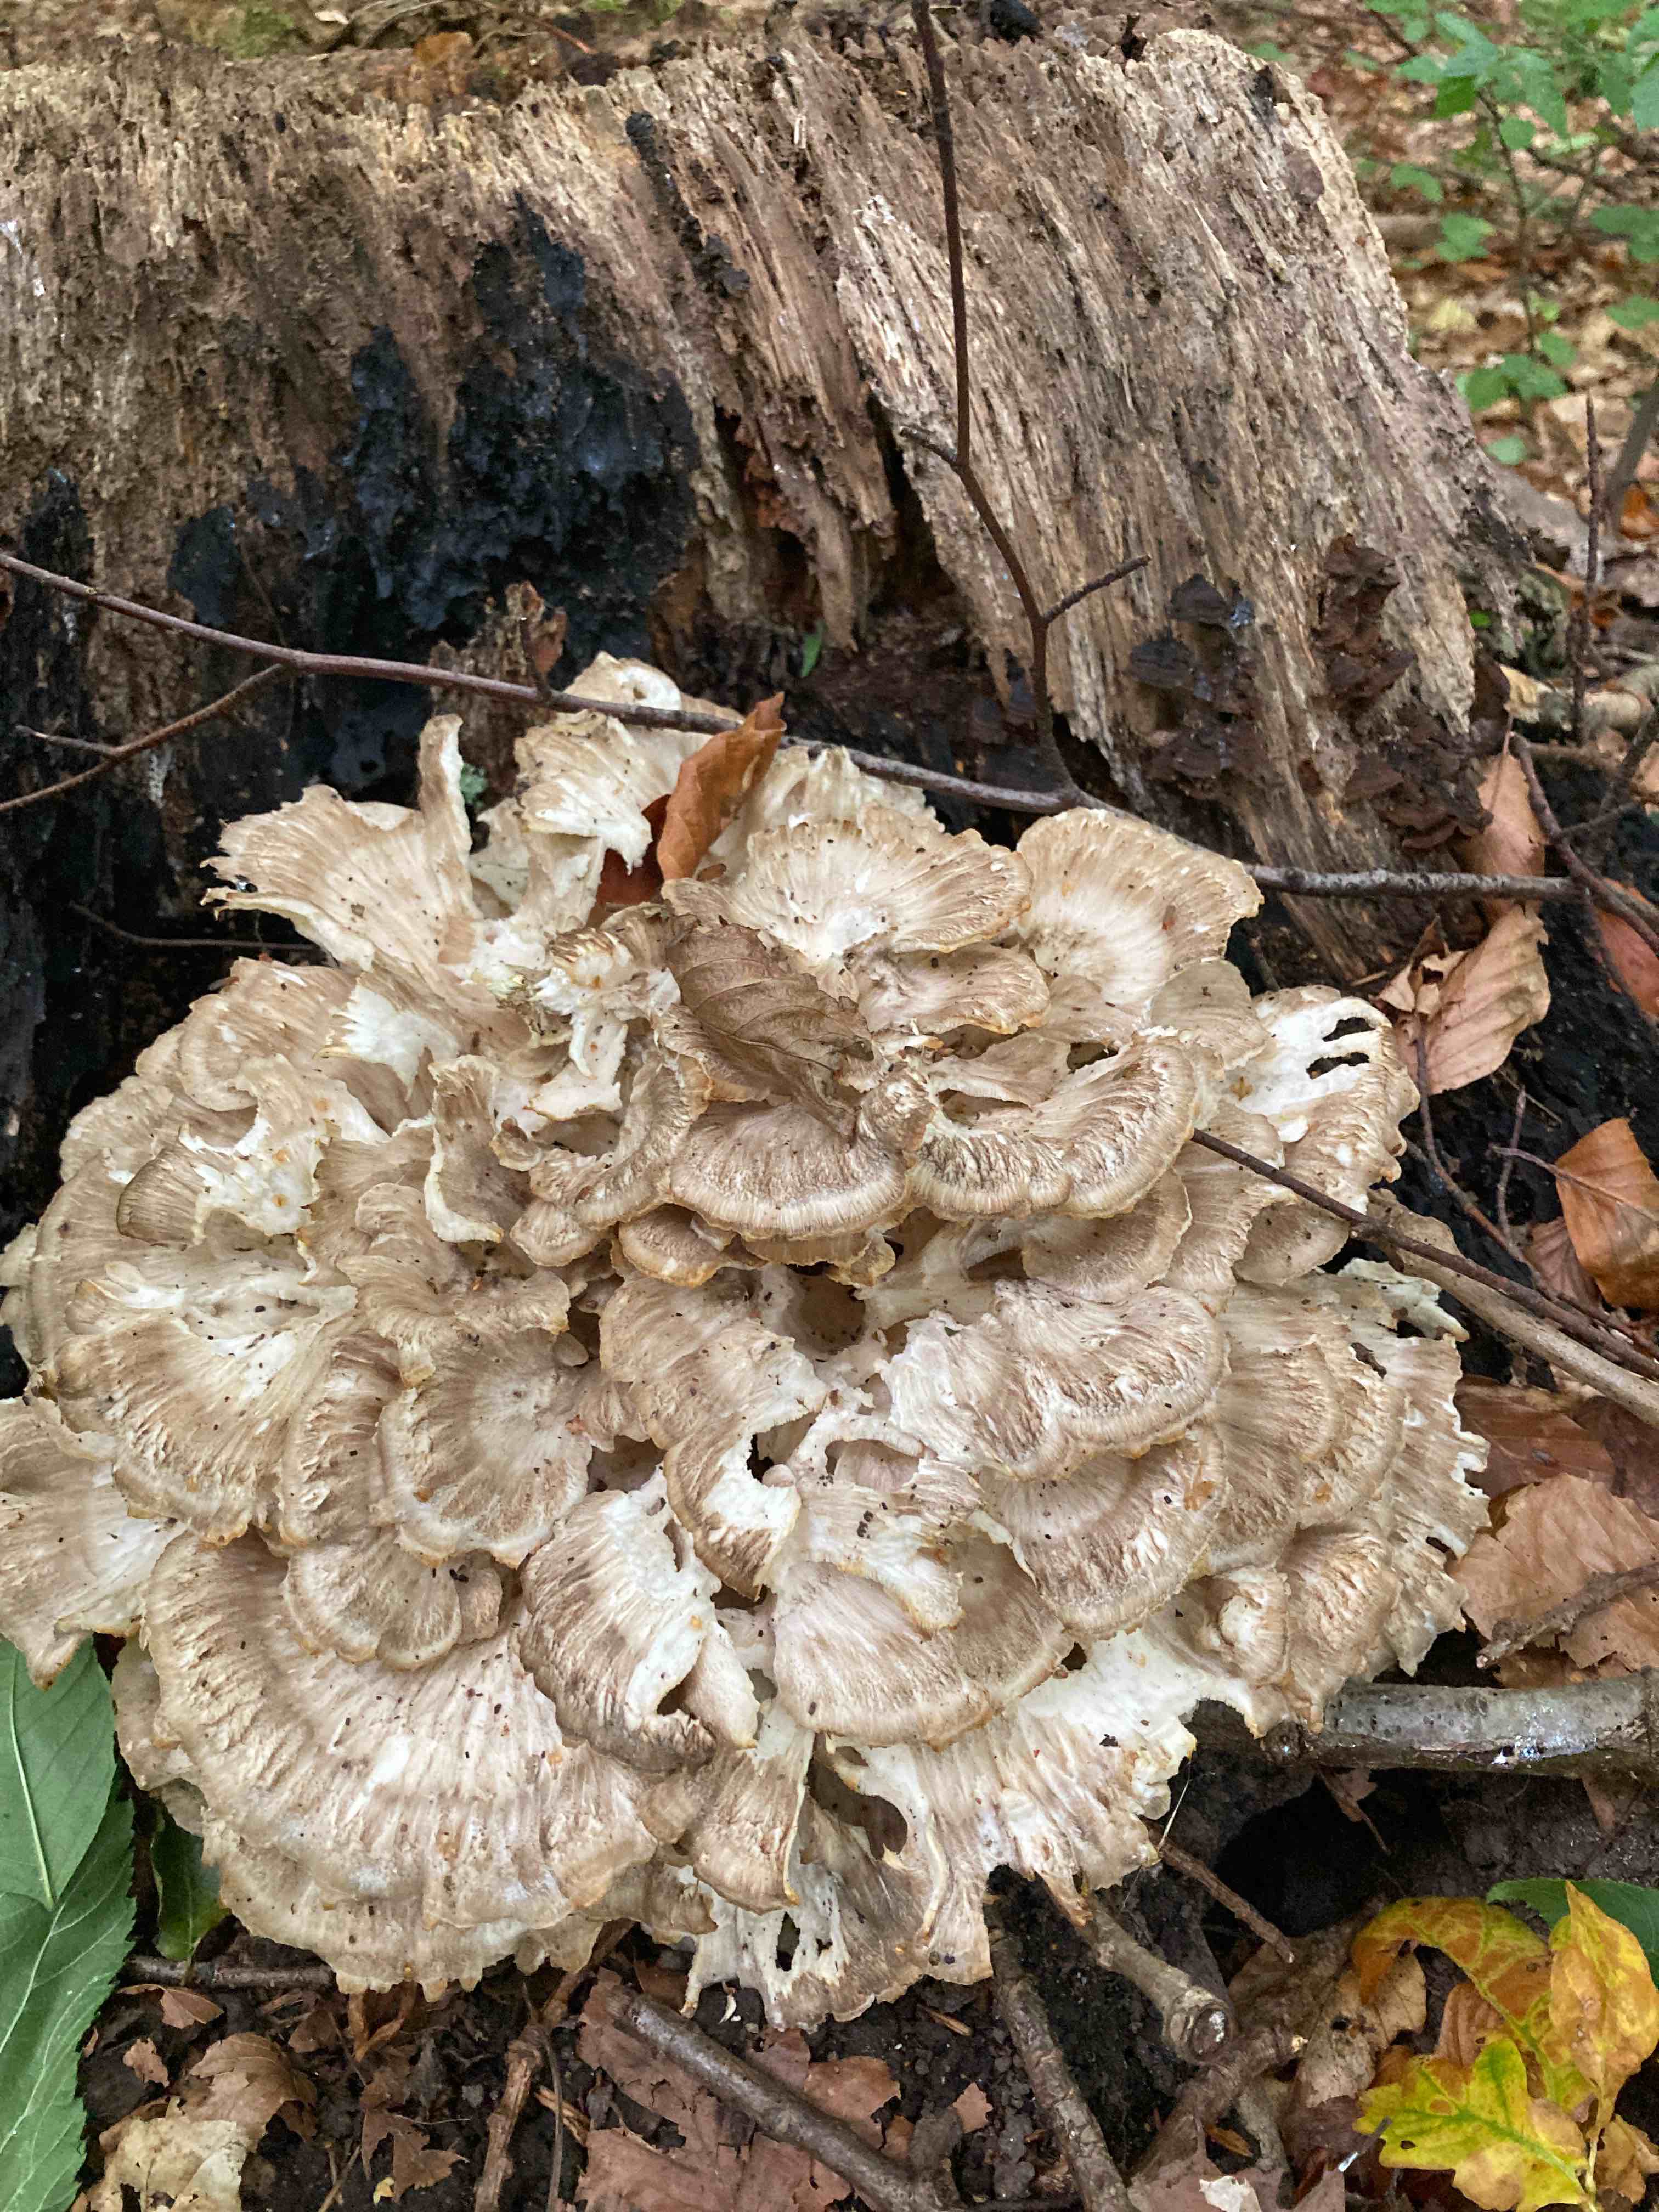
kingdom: Fungi
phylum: Basidiomycota
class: Agaricomycetes
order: Polyporales
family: Grifolaceae
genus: Grifola
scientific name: Grifola frondosa
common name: tueporesvamp
